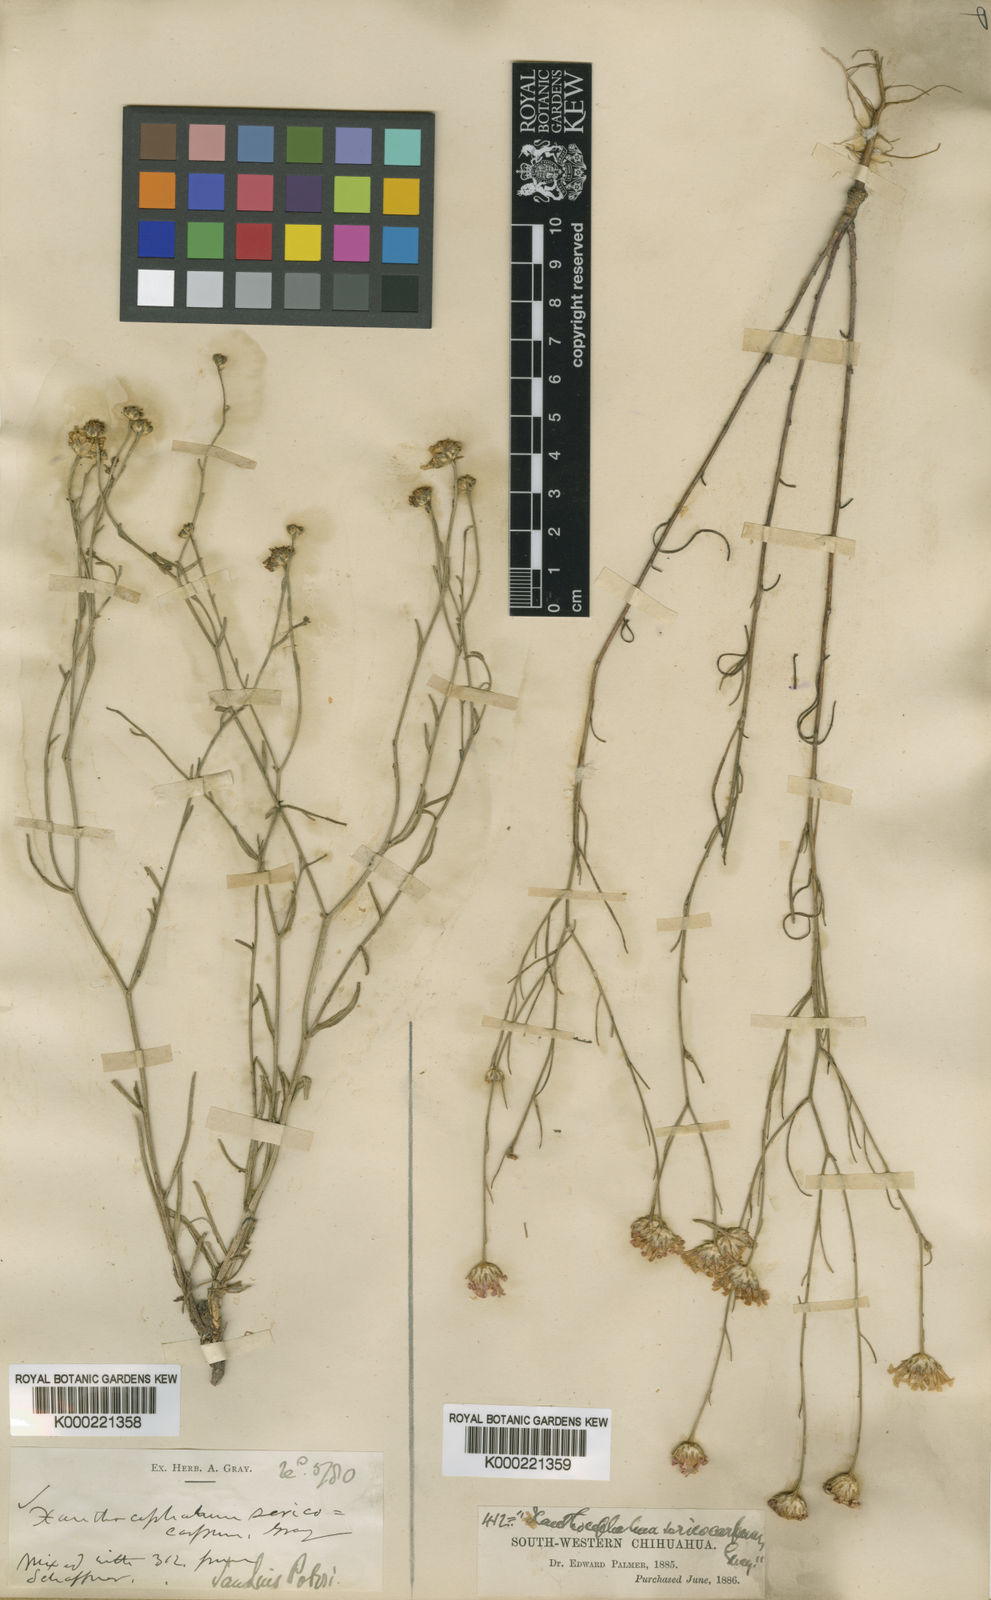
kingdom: Plantae
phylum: Tracheophyta
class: Magnoliopsida
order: Asterales
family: Asteraceae
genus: Gutierrezia
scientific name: Gutierrezia sericocarpa
